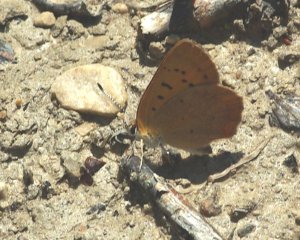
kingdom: Animalia
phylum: Arthropoda
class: Insecta
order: Lepidoptera
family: Lycaenidae
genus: Epidemia
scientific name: Epidemia dorcas
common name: Dorcas Copper
